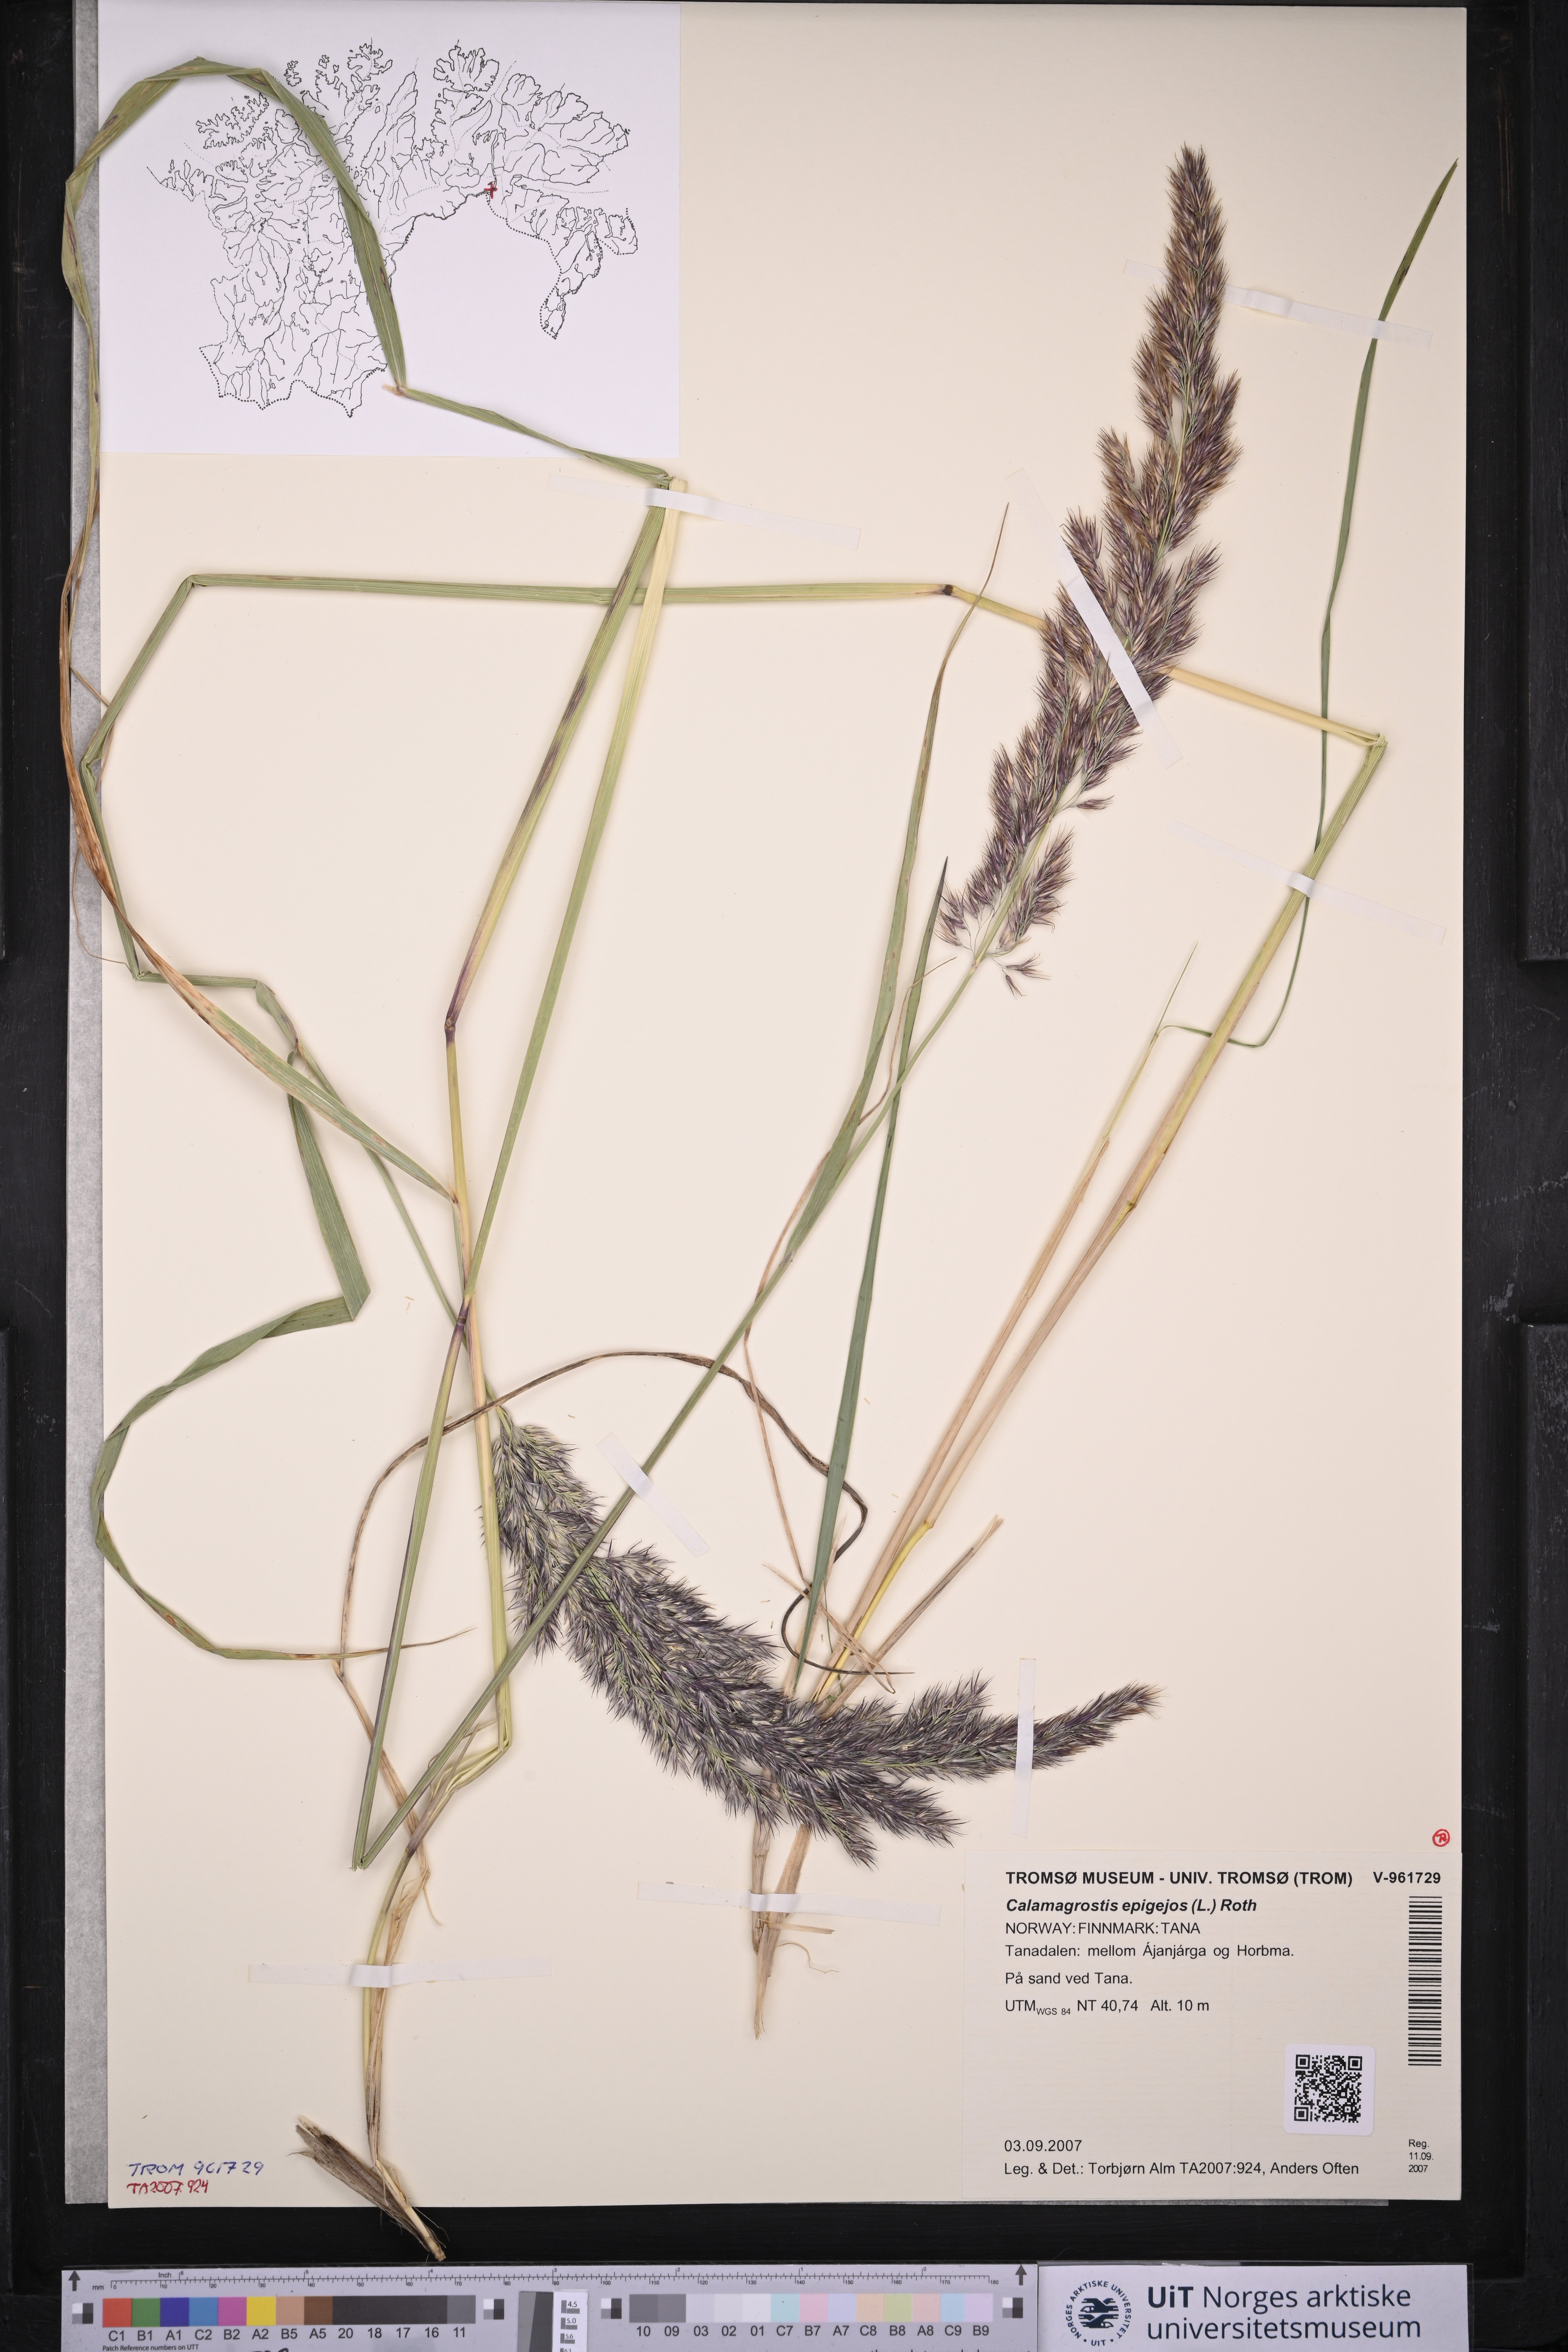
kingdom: Plantae
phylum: Tracheophyta
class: Liliopsida
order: Poales
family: Poaceae
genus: Calamagrostis
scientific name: Calamagrostis epigejos
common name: Wood small-reed
